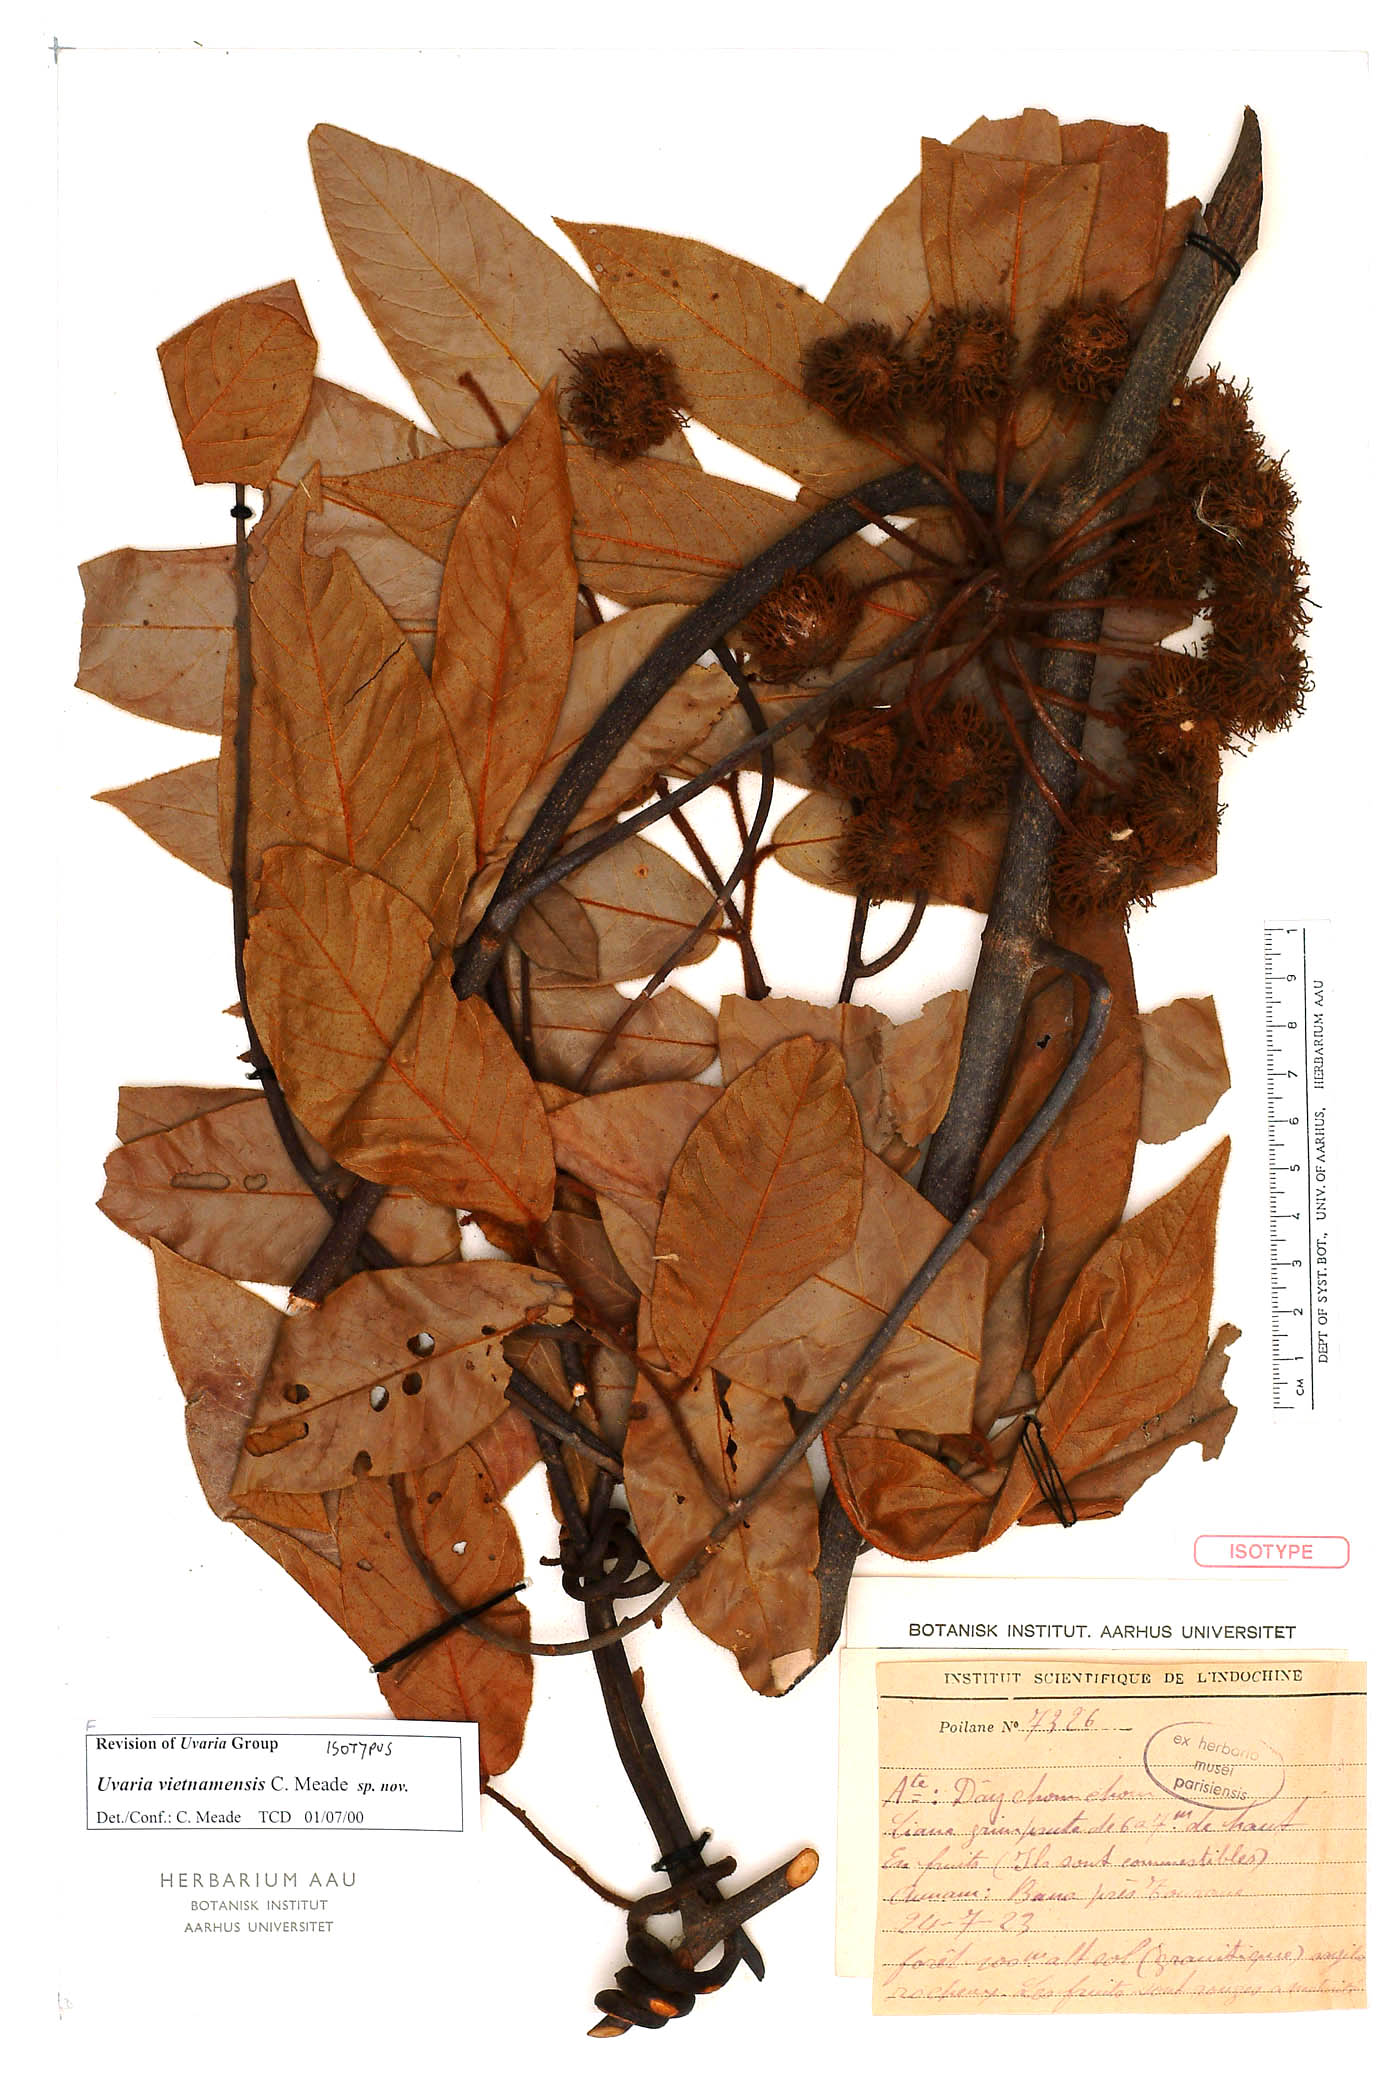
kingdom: Plantae
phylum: Tracheophyta
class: Magnoliopsida
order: Magnoliales
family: Annonaceae
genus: Uvaria
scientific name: Uvaria vietnamensis
